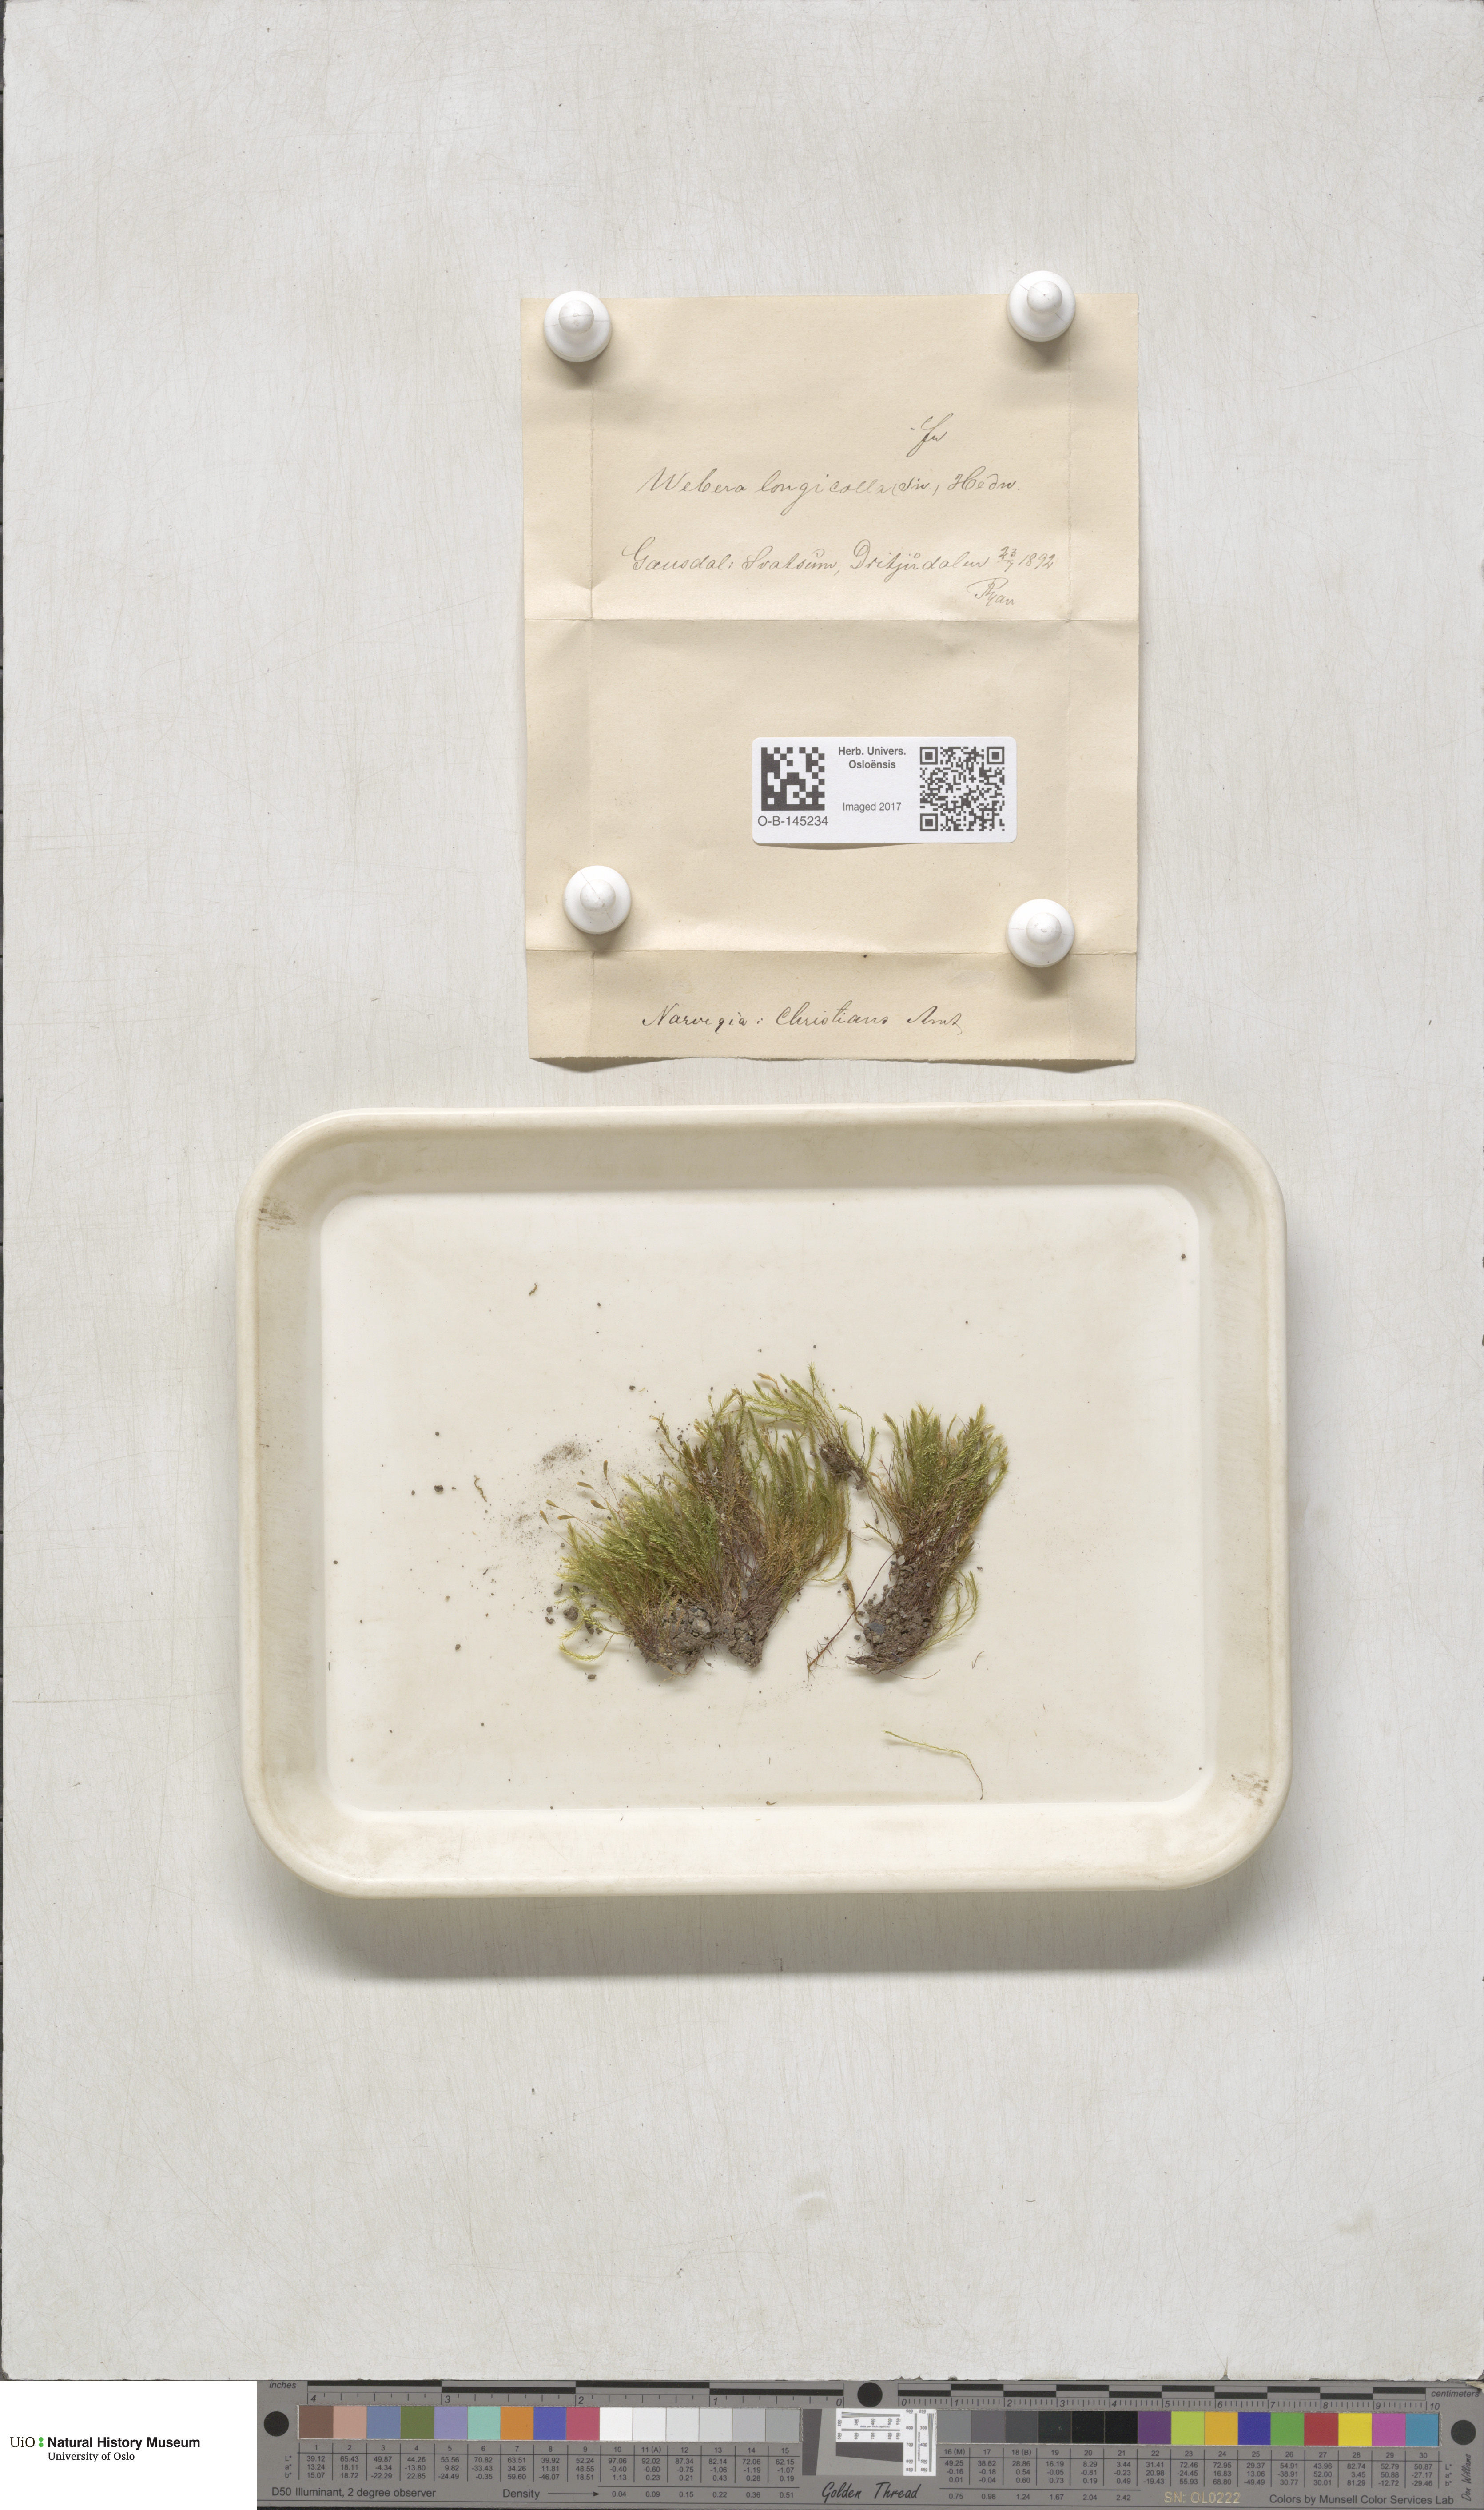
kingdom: Plantae
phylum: Bryophyta
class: Bryopsida
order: Bryales
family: Mniaceae
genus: Pohlia
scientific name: Pohlia longicolla
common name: Long-necked nodding moss
